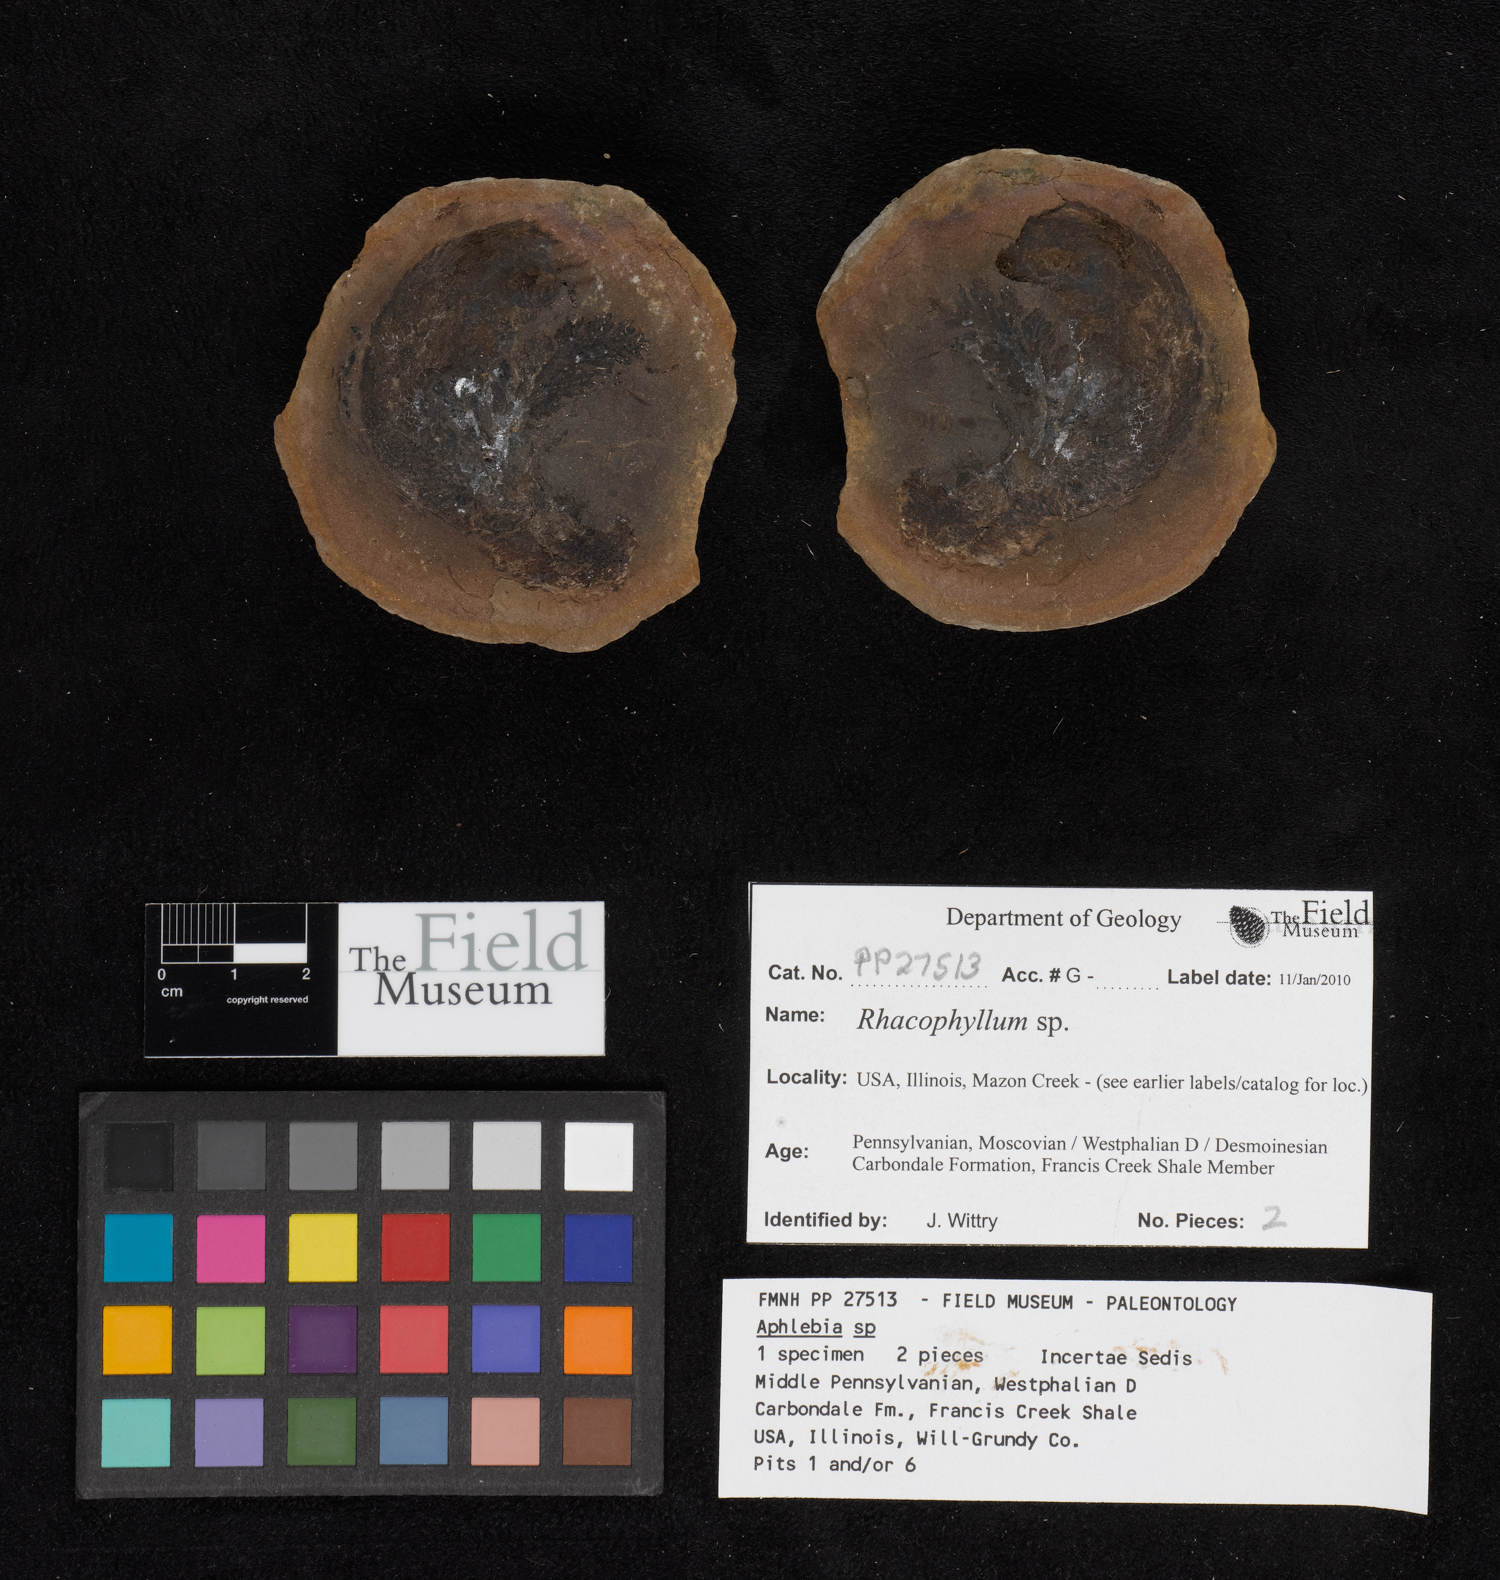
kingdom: Plantae
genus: Rhacophyllum
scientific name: Rhacophyllum
